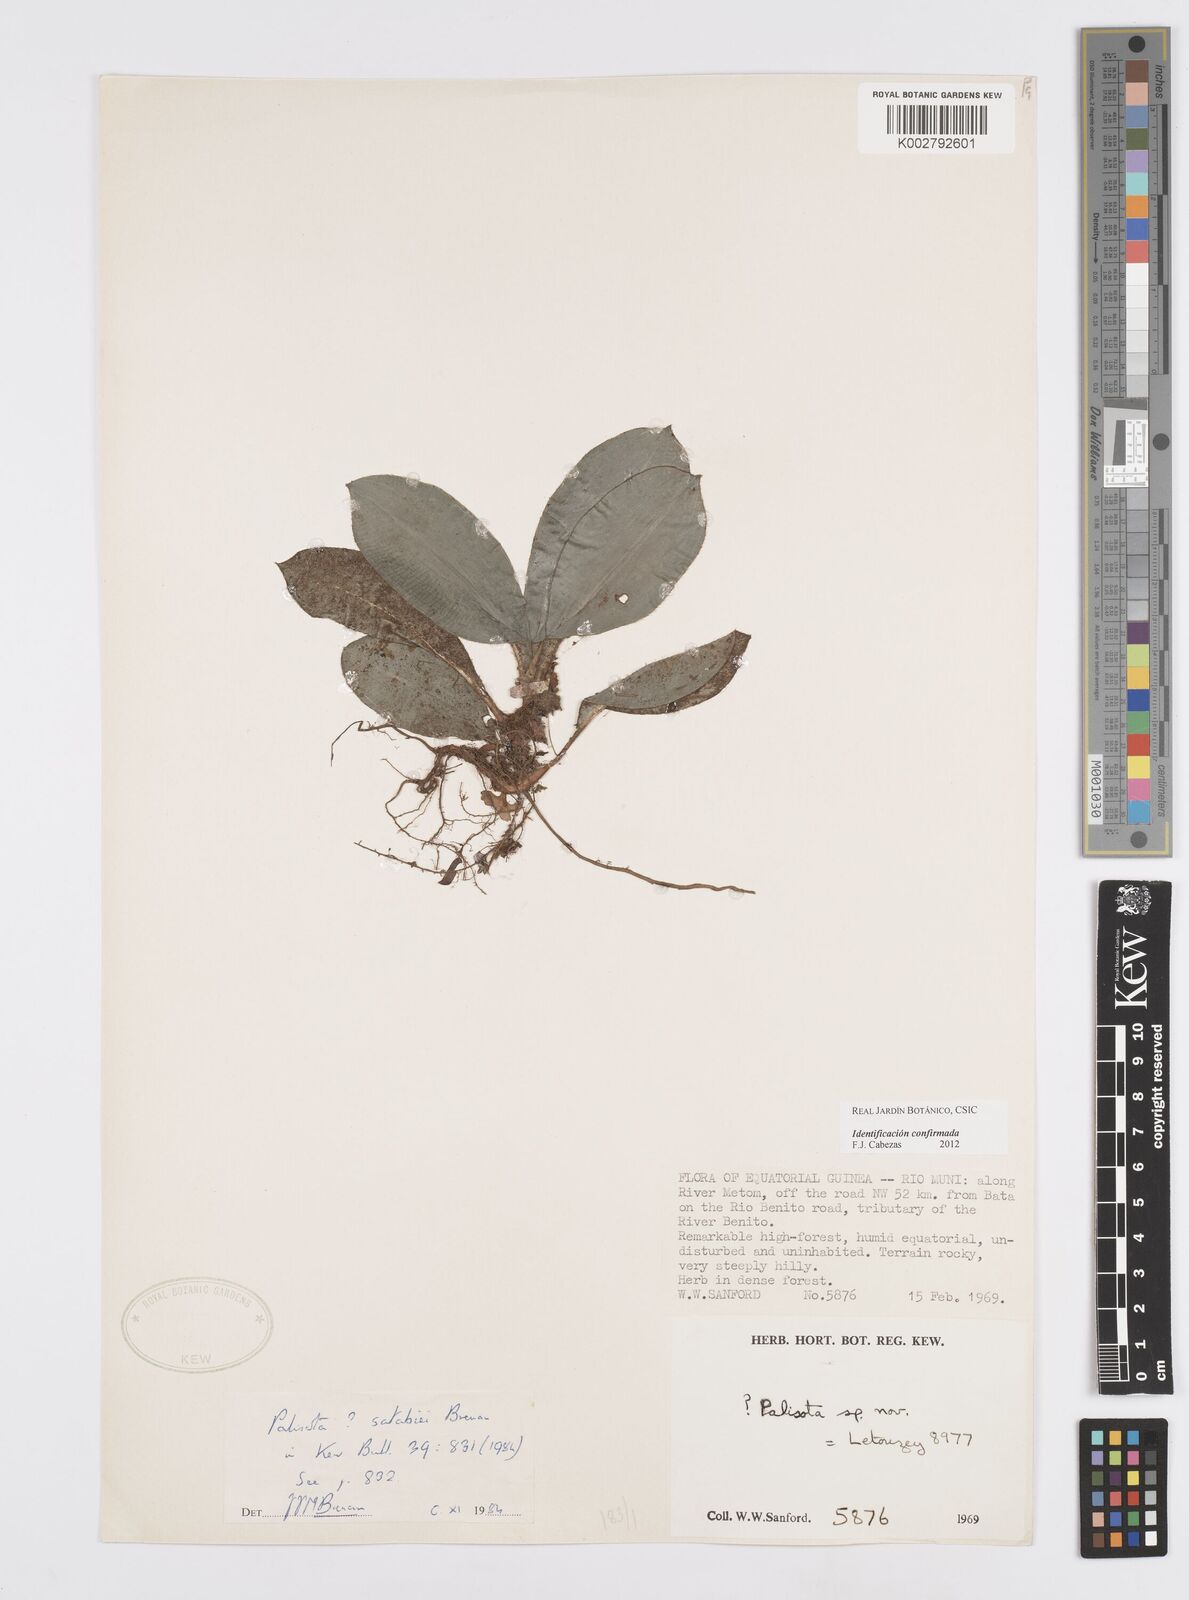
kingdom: Plantae
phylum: Tracheophyta
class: Liliopsida
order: Commelinales
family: Commelinaceae
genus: Palisota
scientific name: Palisota satabiei
